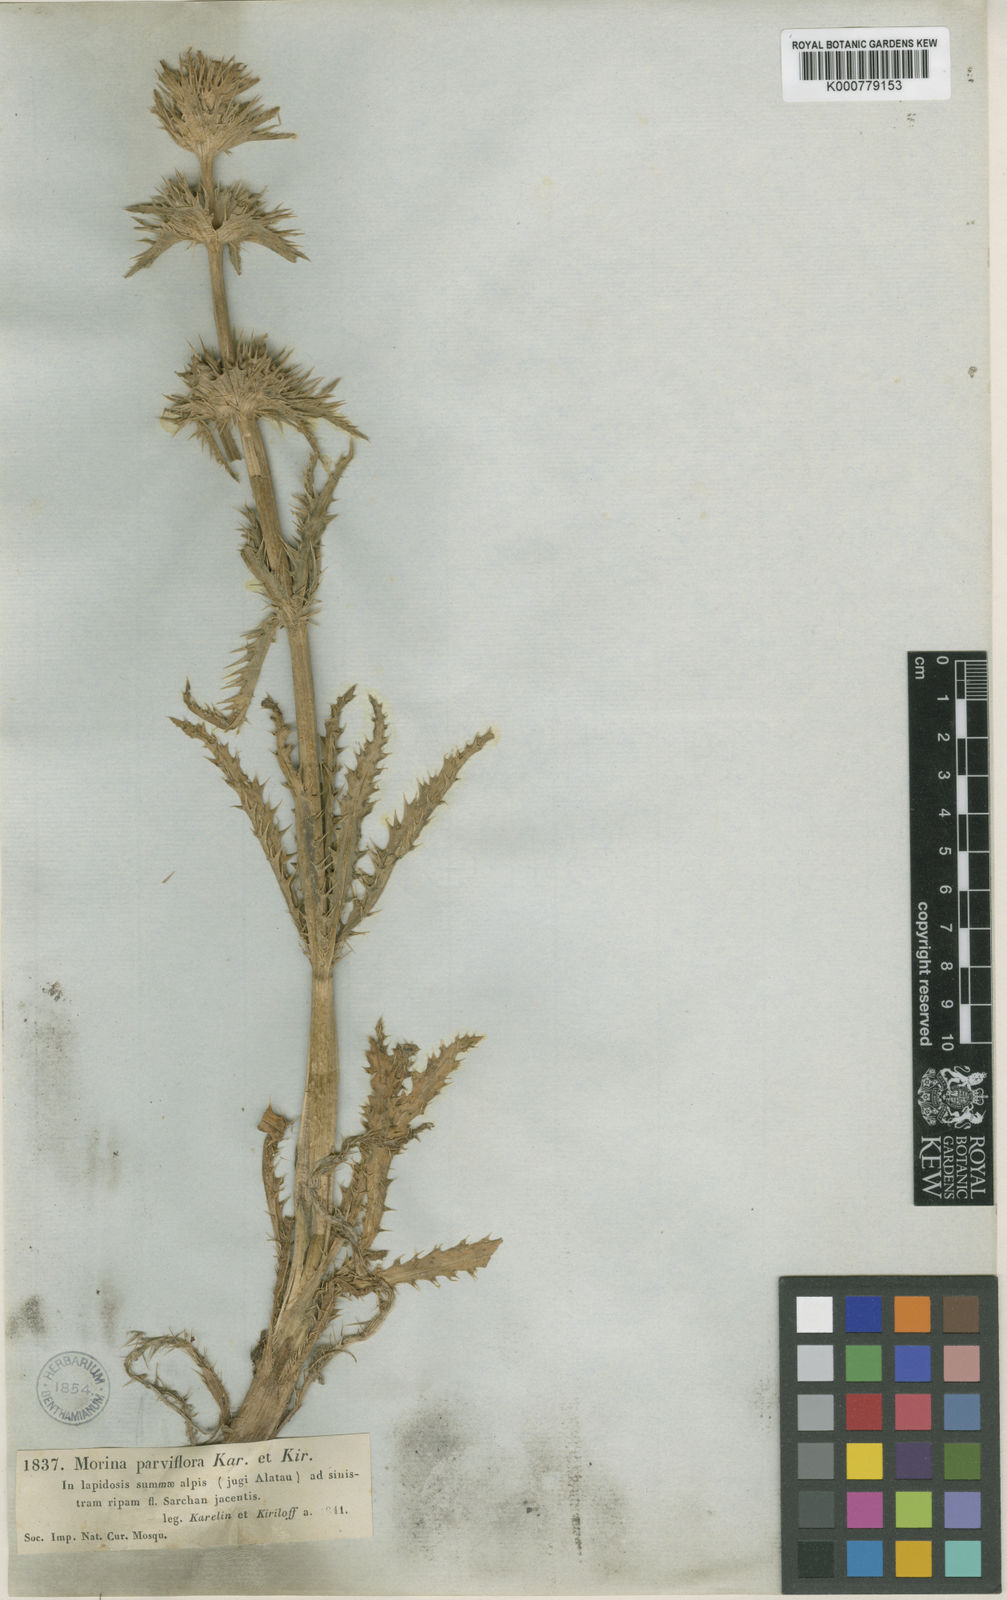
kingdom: Plantae
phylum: Tracheophyta
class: Magnoliopsida
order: Dipsacales
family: Caprifoliaceae
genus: Cryptothladia
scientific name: Cryptothladia parviflora
